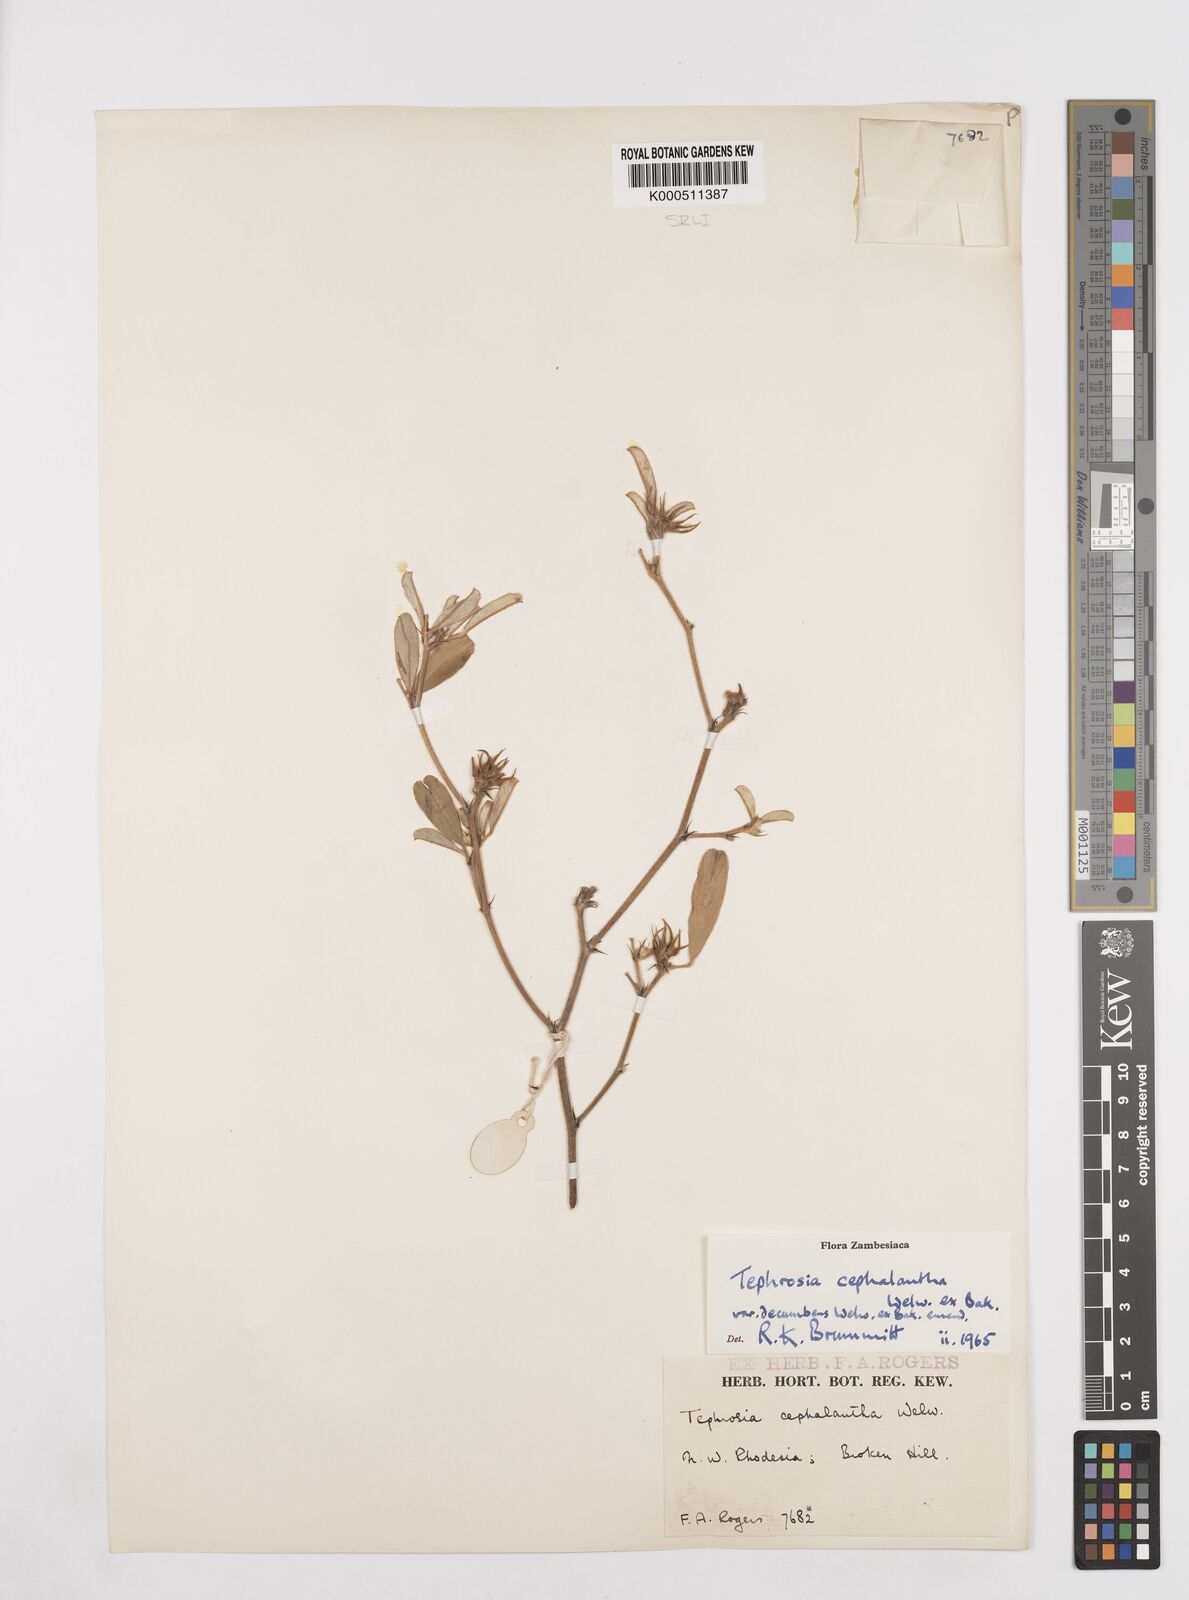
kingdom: Plantae
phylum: Tracheophyta
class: Magnoliopsida
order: Fabales
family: Fabaceae
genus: Tephrosia
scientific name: Tephrosia
